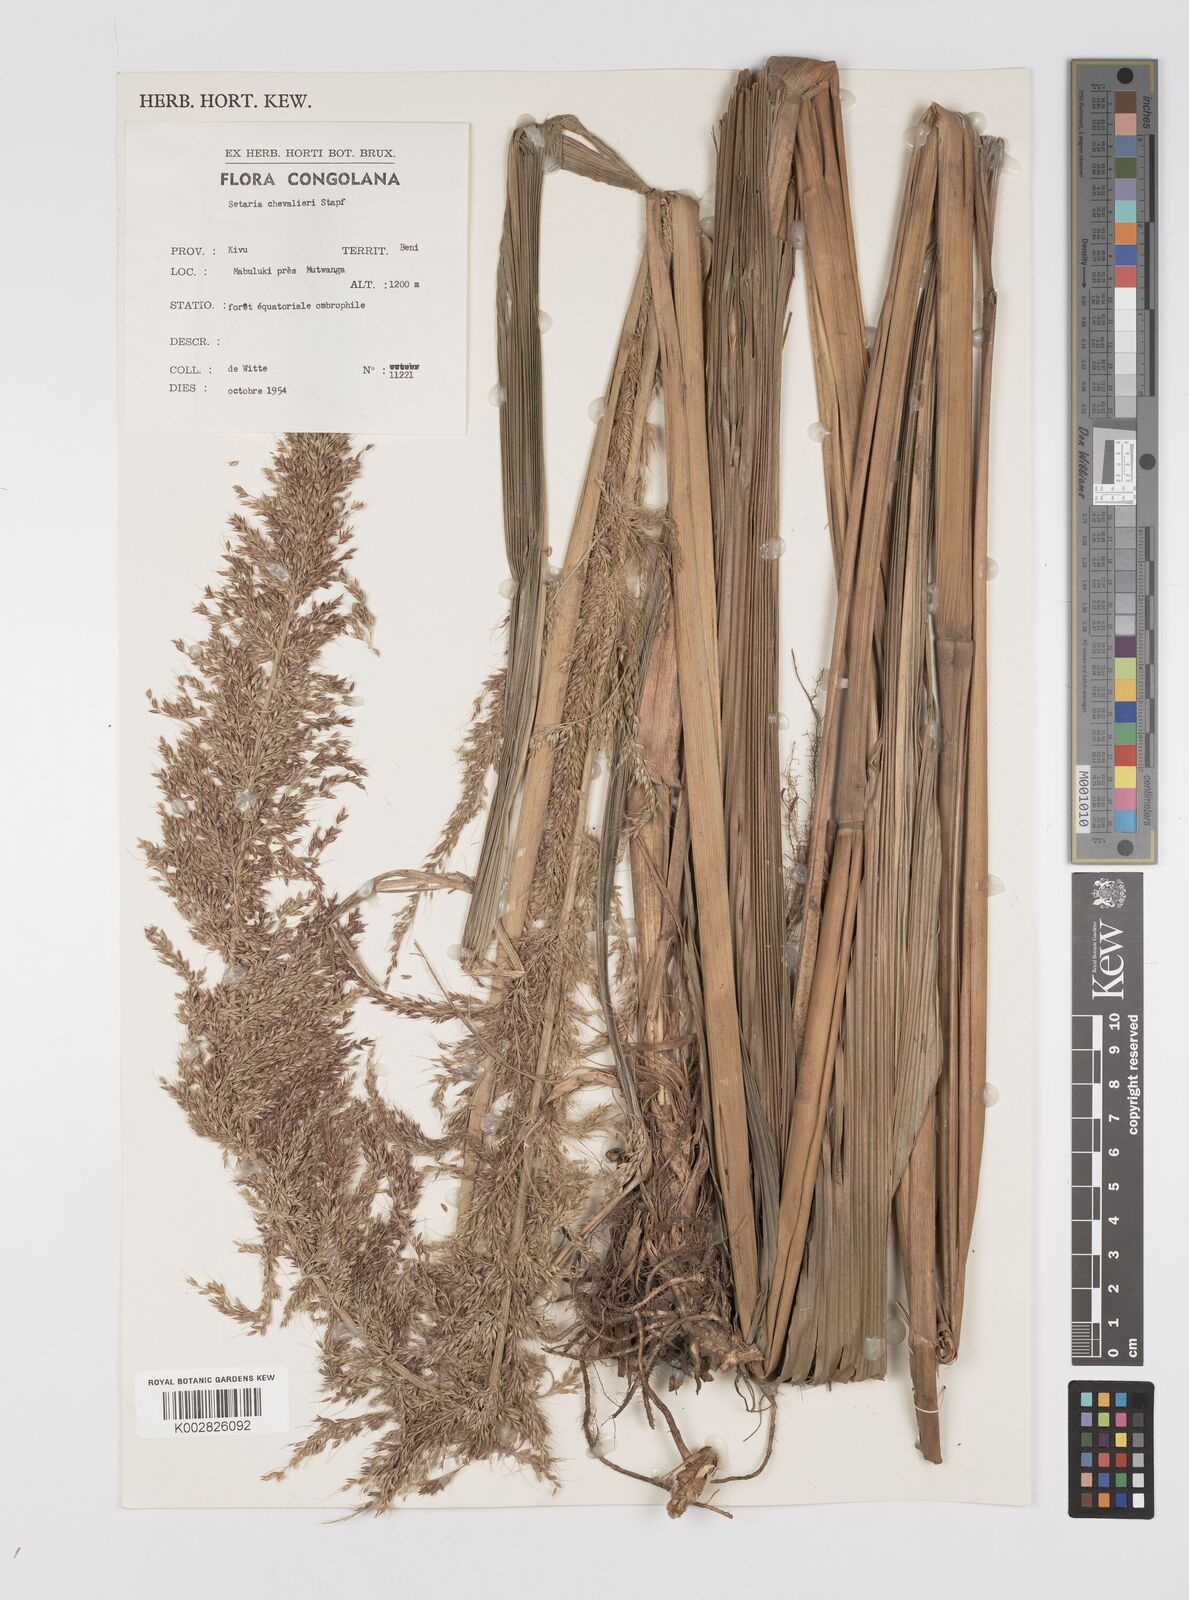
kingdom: Plantae
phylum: Tracheophyta
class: Liliopsida
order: Poales
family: Poaceae
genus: Setaria
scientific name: Setaria poiretiana
